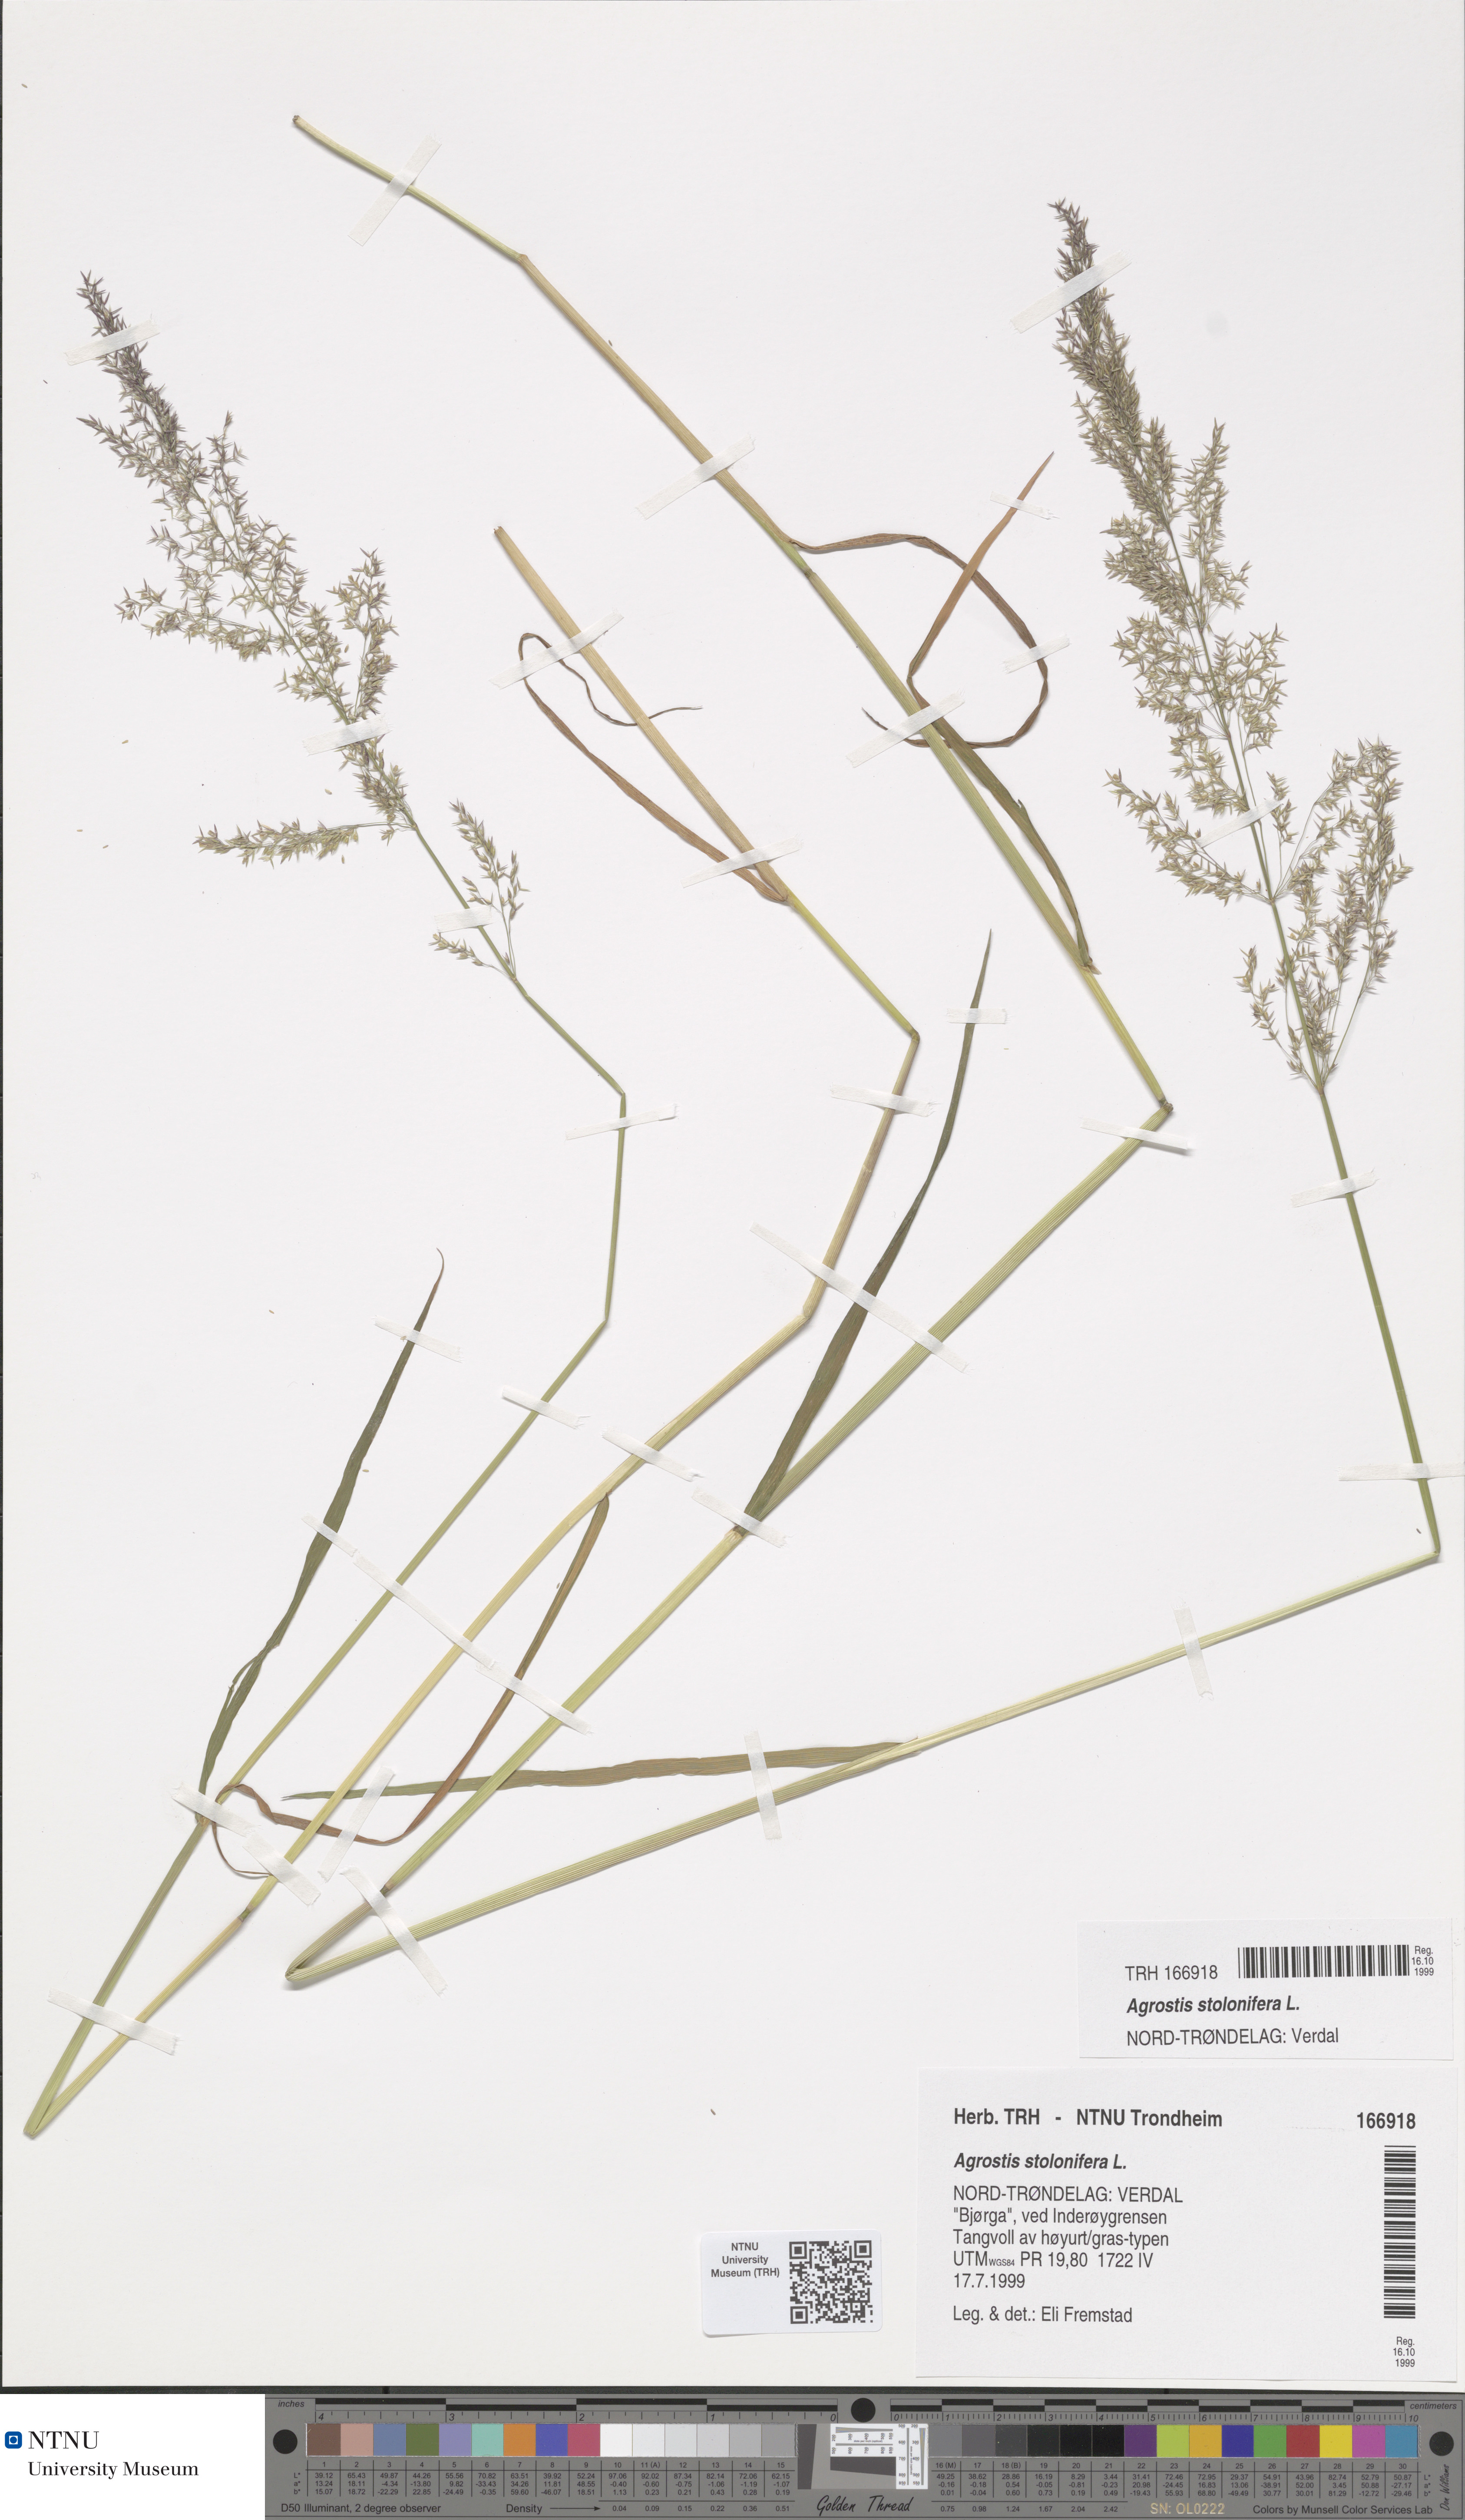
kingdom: Plantae
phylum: Tracheophyta
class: Liliopsida
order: Poales
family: Poaceae
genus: Agrostis
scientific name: Agrostis stolonifera
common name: Creeping bentgrass
